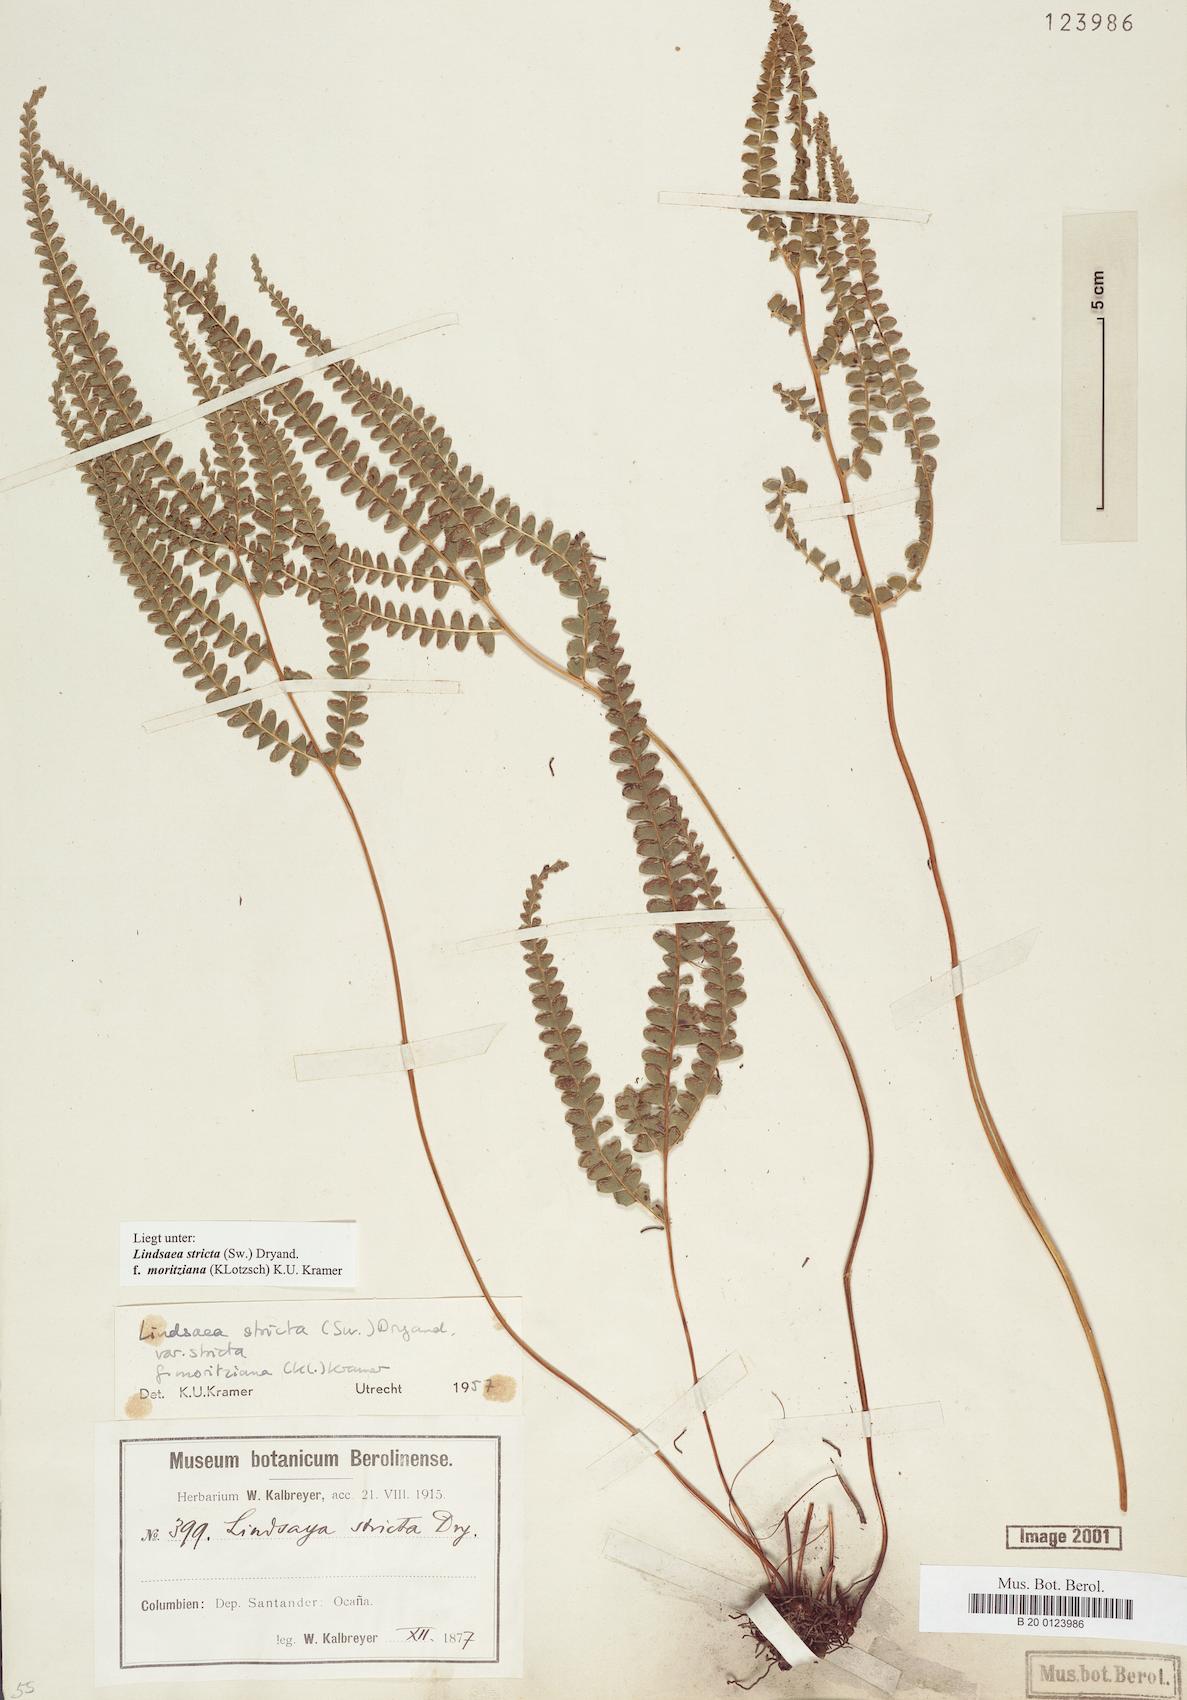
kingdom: Plantae
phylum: Tracheophyta
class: Polypodiopsida
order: Polypodiales
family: Lindsaeaceae
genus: Lindsaea
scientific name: Lindsaea guianensis
